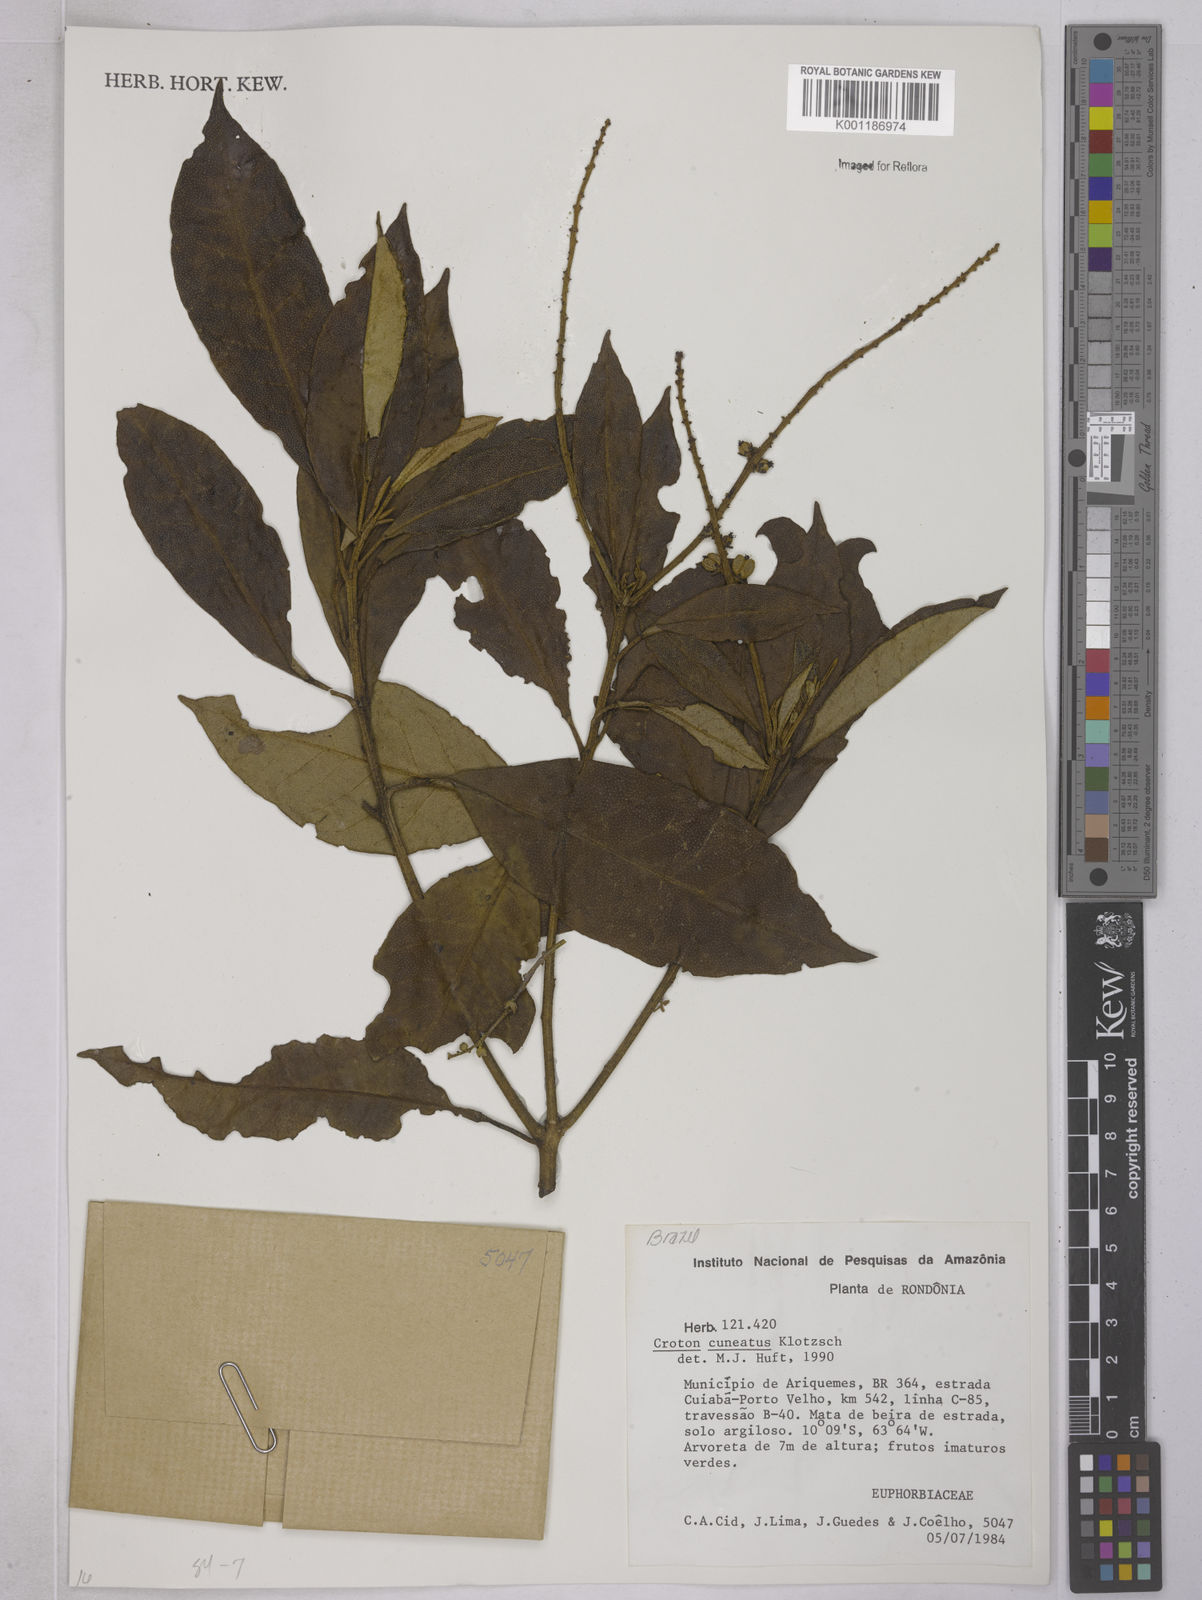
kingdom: Plantae
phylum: Tracheophyta
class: Magnoliopsida
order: Malpighiales
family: Euphorbiaceae
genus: Croton
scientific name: Croton
